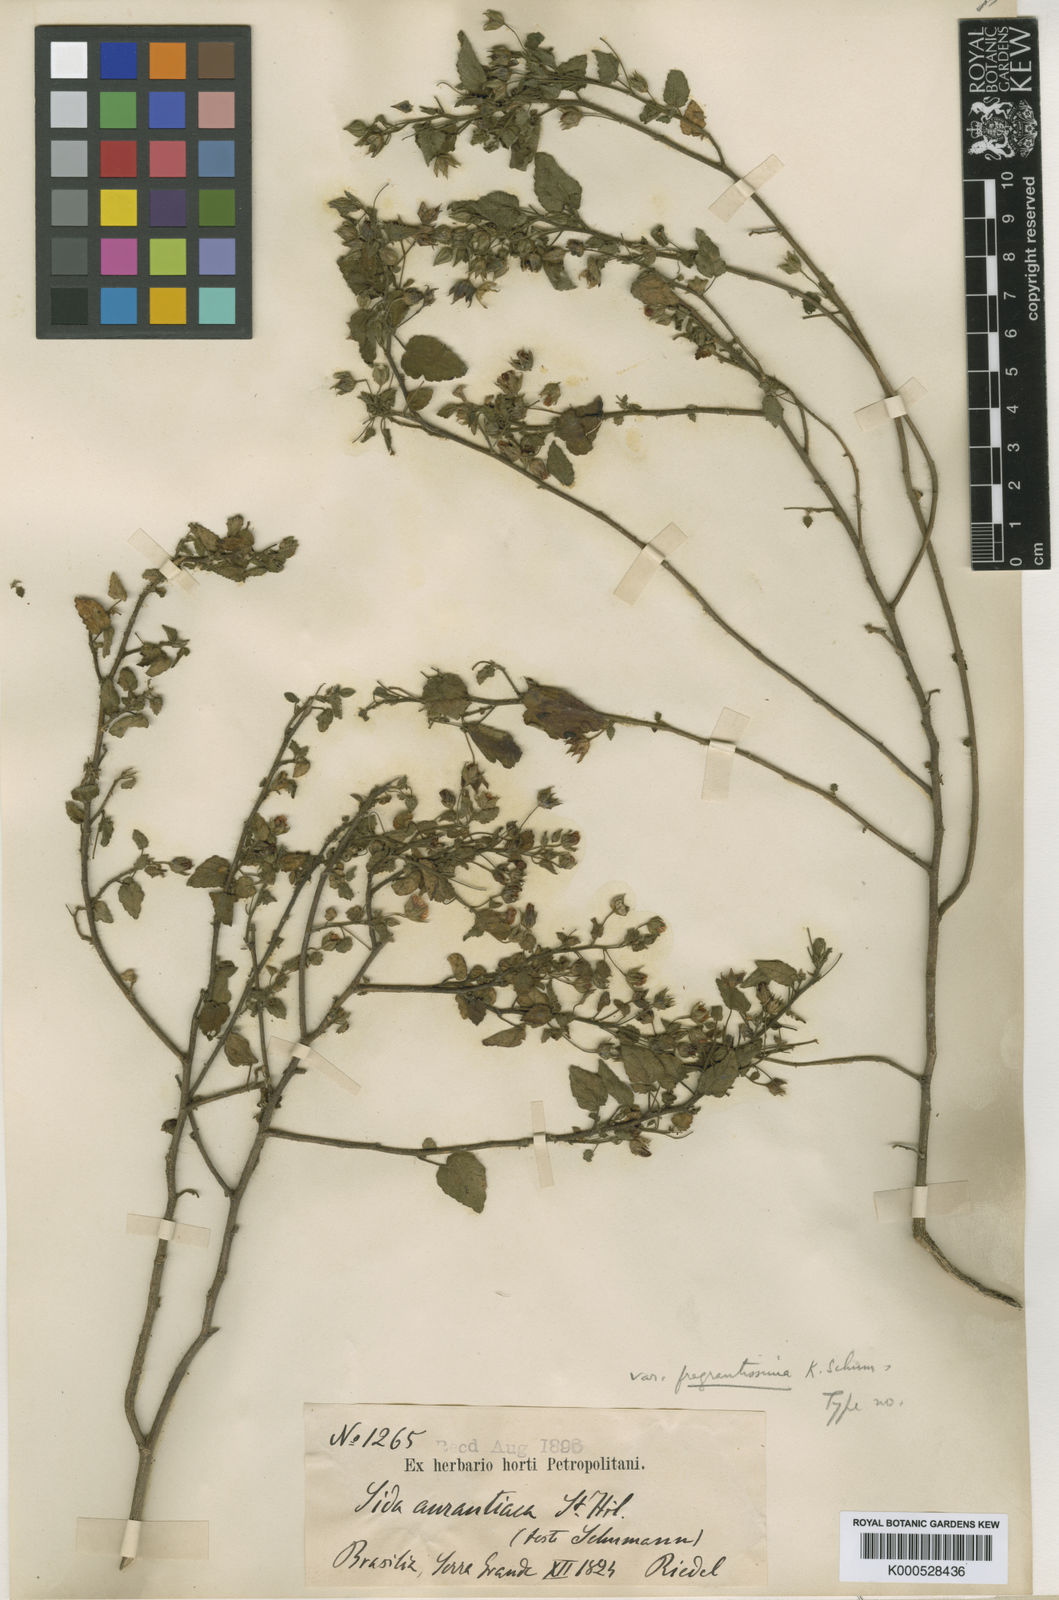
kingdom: Plantae
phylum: Tracheophyta
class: Magnoliopsida
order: Malvales
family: Malvaceae
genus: Sida
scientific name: Sida aurantiaca
